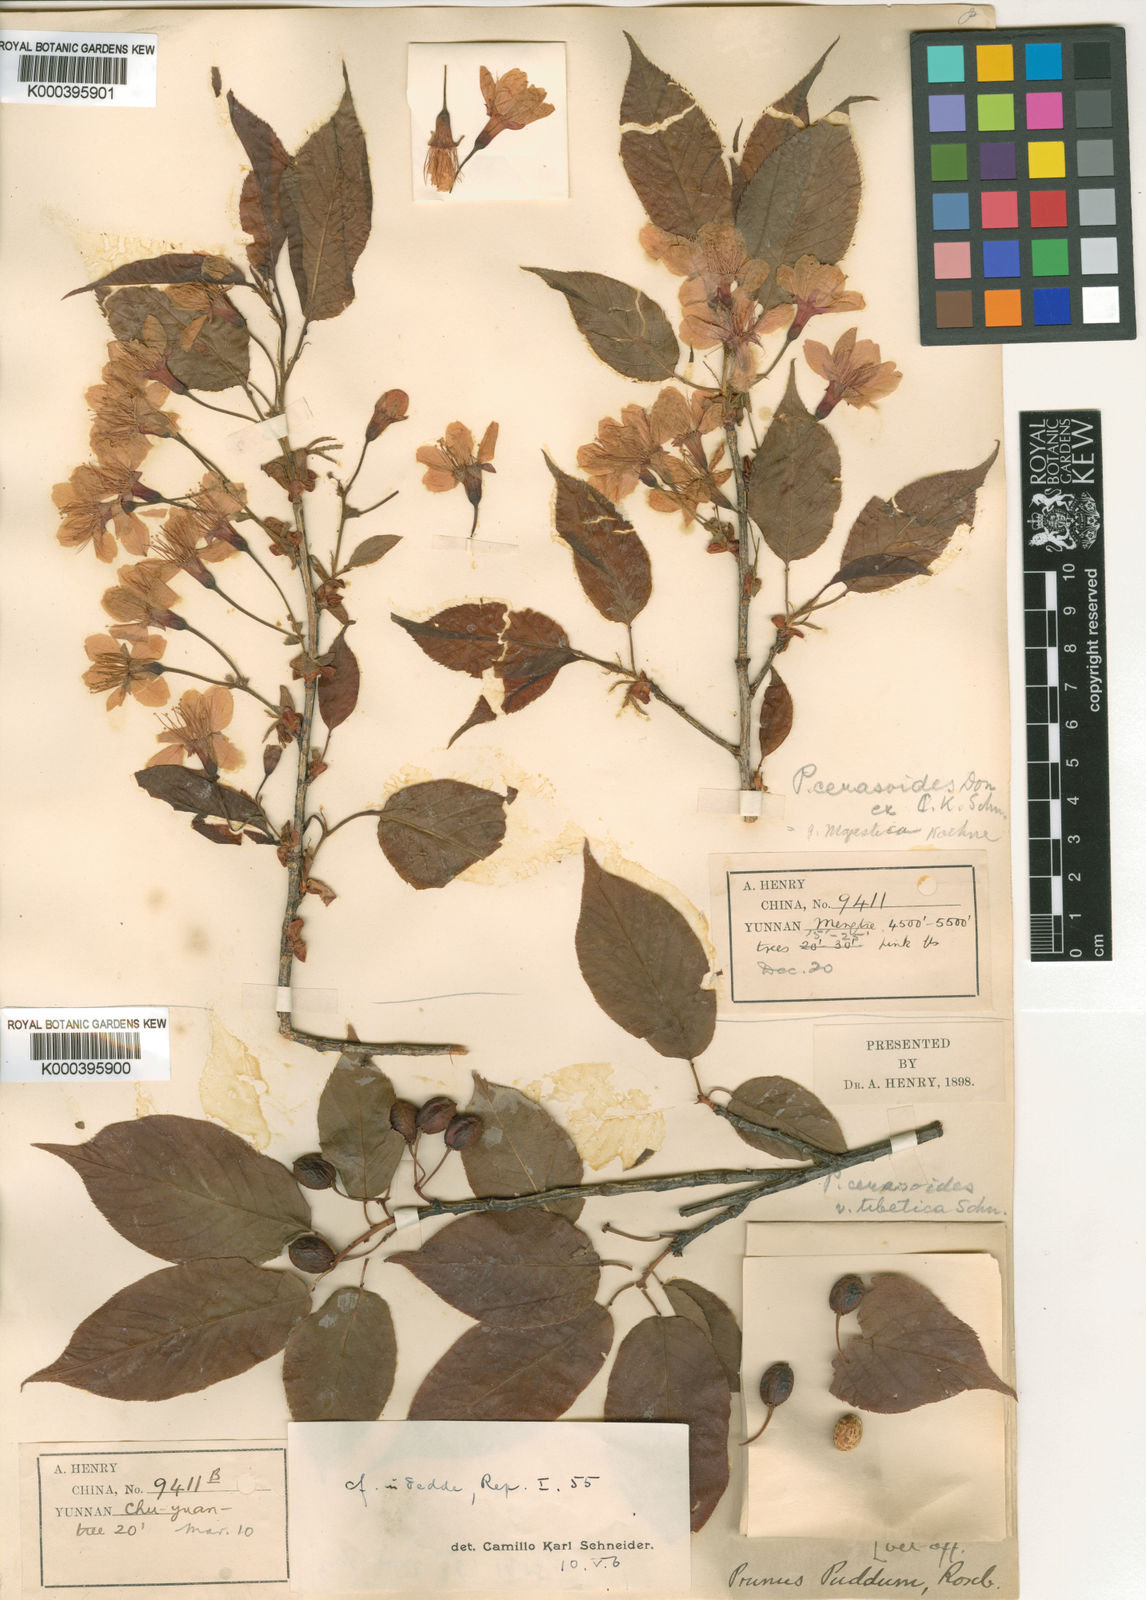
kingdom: Plantae
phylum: Tracheophyta
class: Magnoliopsida
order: Rosales
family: Rosaceae
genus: Prunus
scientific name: Prunus cerasoides
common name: Wild himalayan cherry
